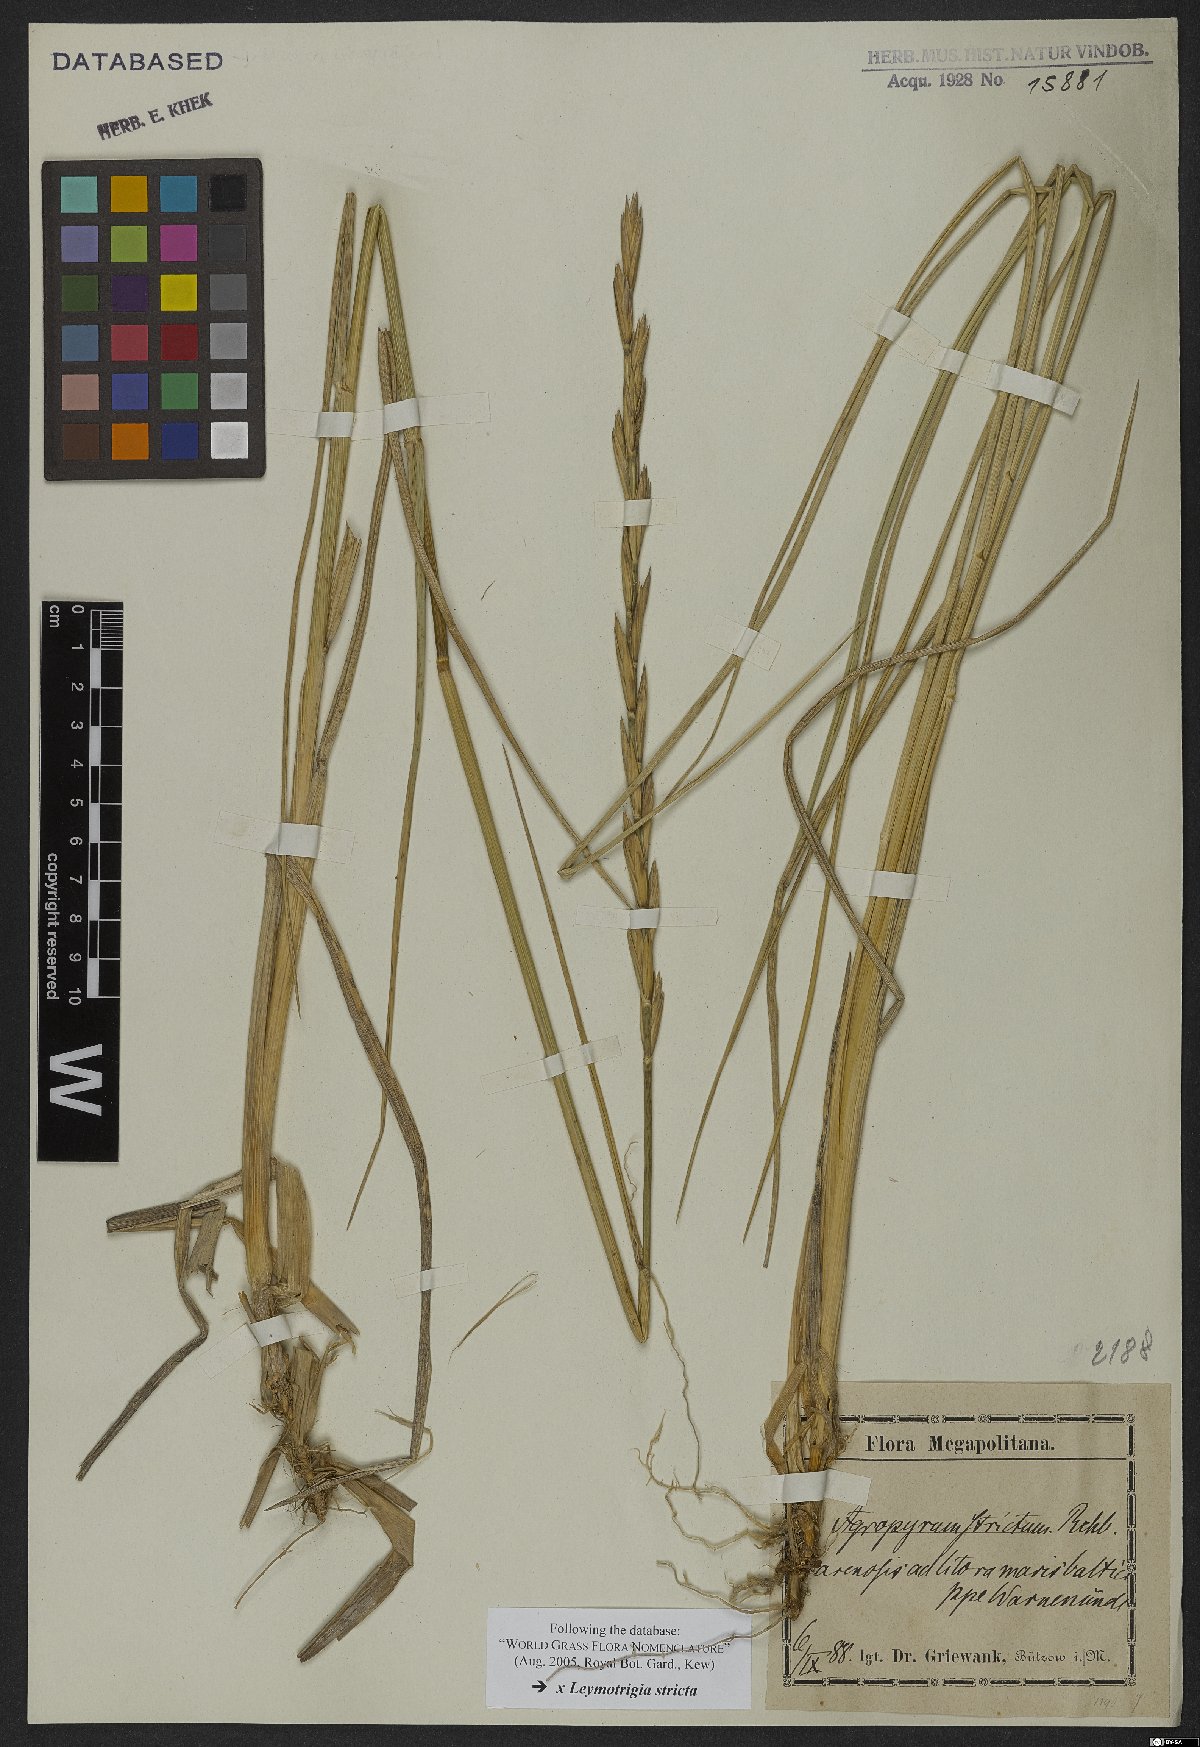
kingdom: Plantae
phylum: Tracheophyta
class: Liliopsida
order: Poales
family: Poaceae
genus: Elyleymus
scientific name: Elyleymus strictus
